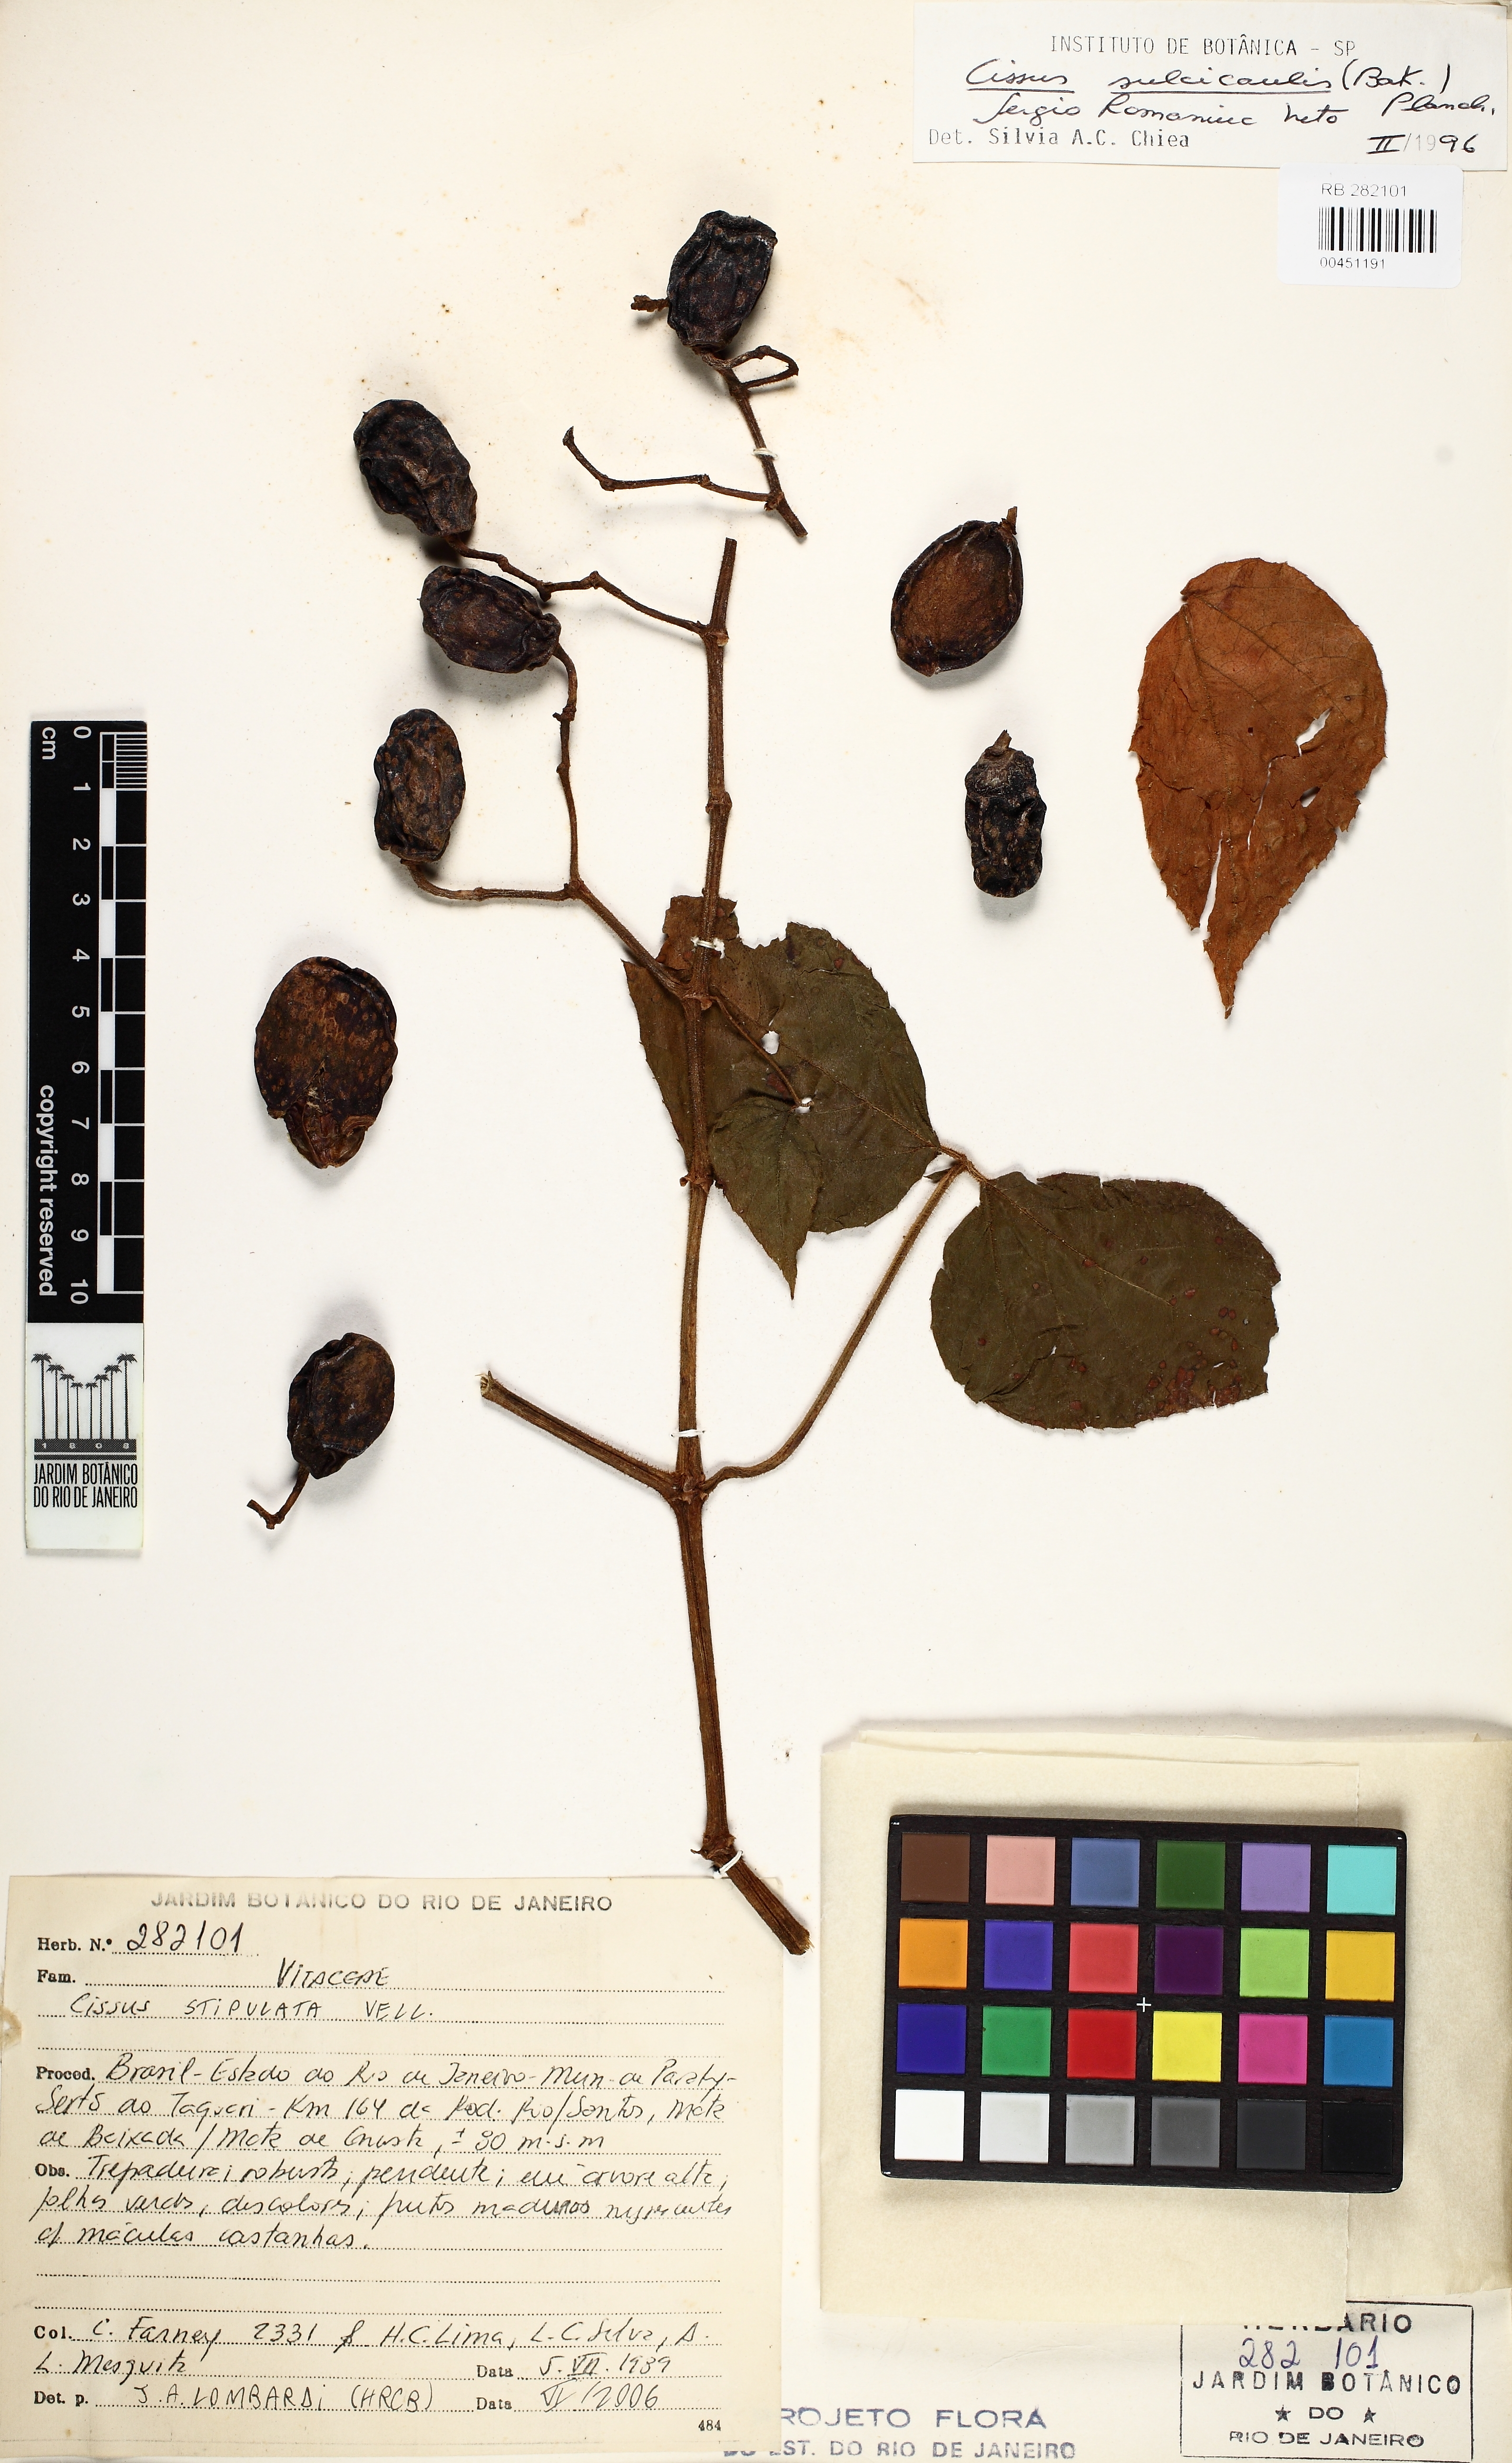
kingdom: Plantae
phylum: Tracheophyta
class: Magnoliopsida
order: Vitales
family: Vitaceae
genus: Cissus
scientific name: Cissus stipulata
